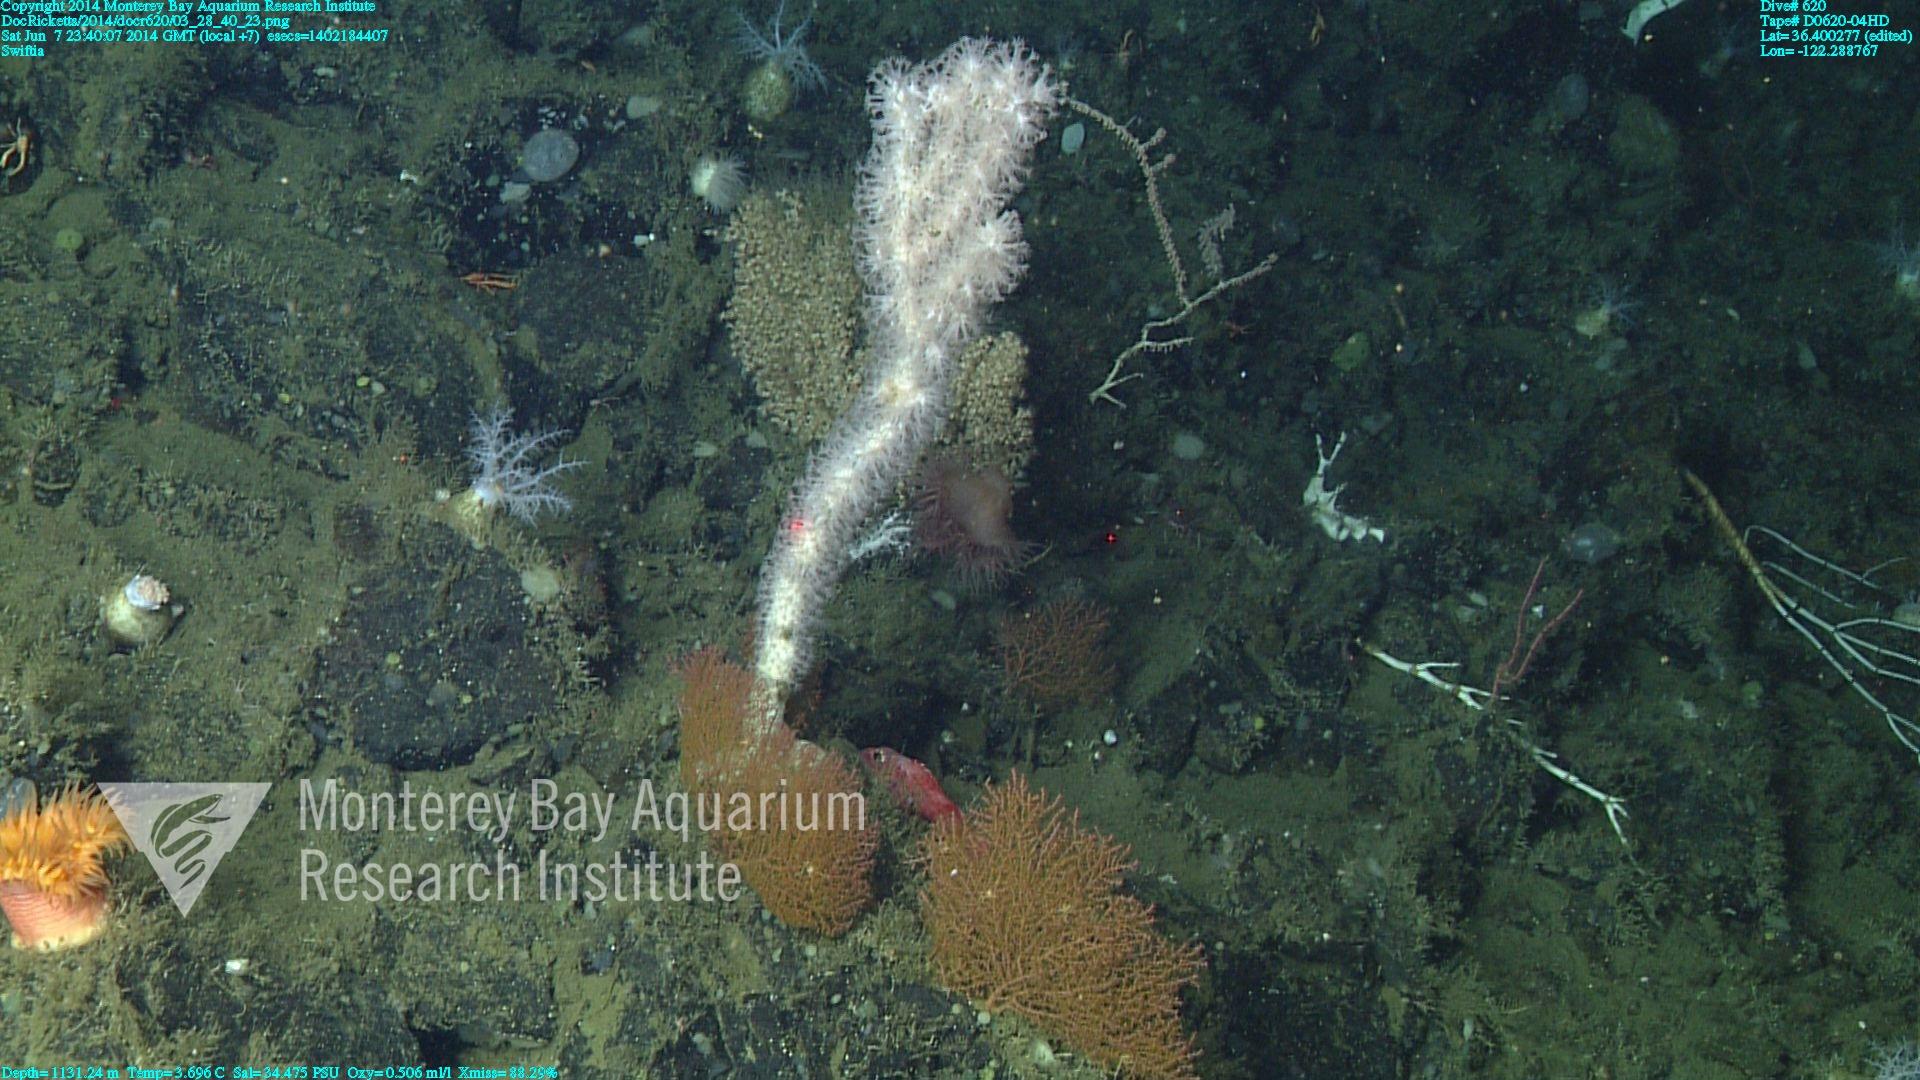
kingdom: Animalia
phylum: Cnidaria
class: Anthozoa
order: Malacalcyonacea
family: Gorgoniidae
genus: Callistephanus
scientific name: Callistephanus kofoidi
